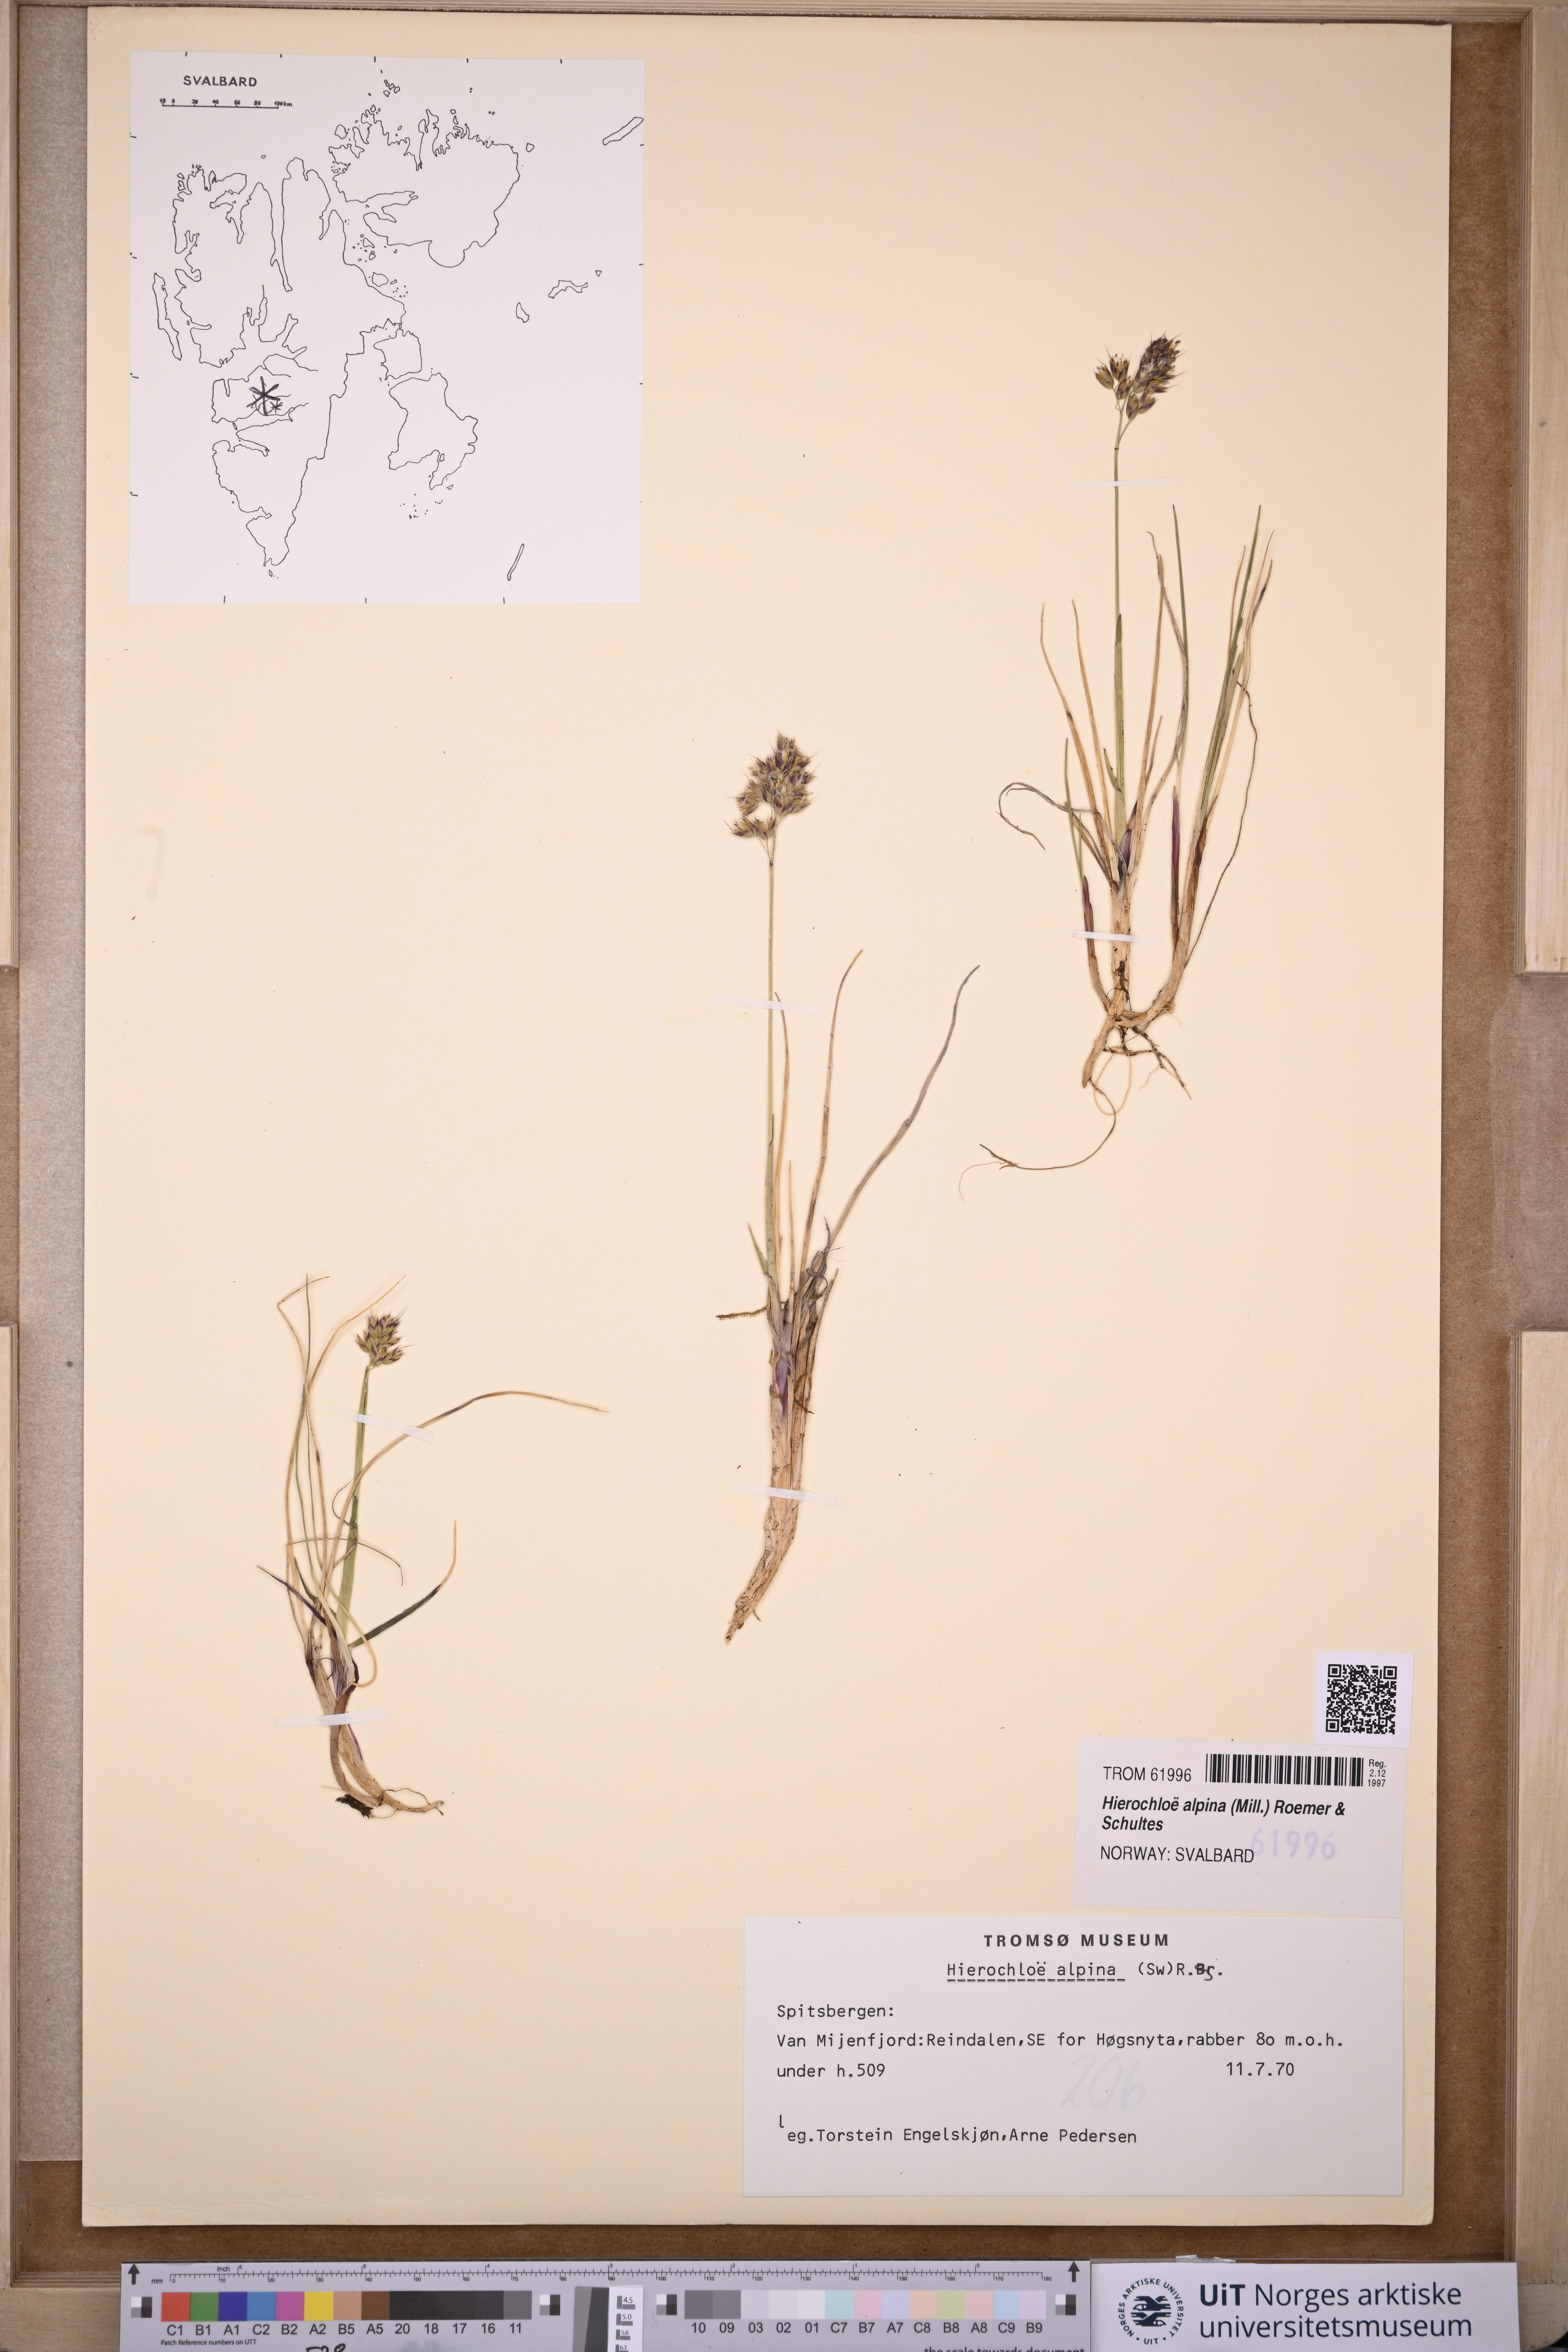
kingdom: Plantae
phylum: Tracheophyta
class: Liliopsida
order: Poales
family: Poaceae
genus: Anthoxanthum
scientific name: Anthoxanthum monticola
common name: Alpine sweetgrass
